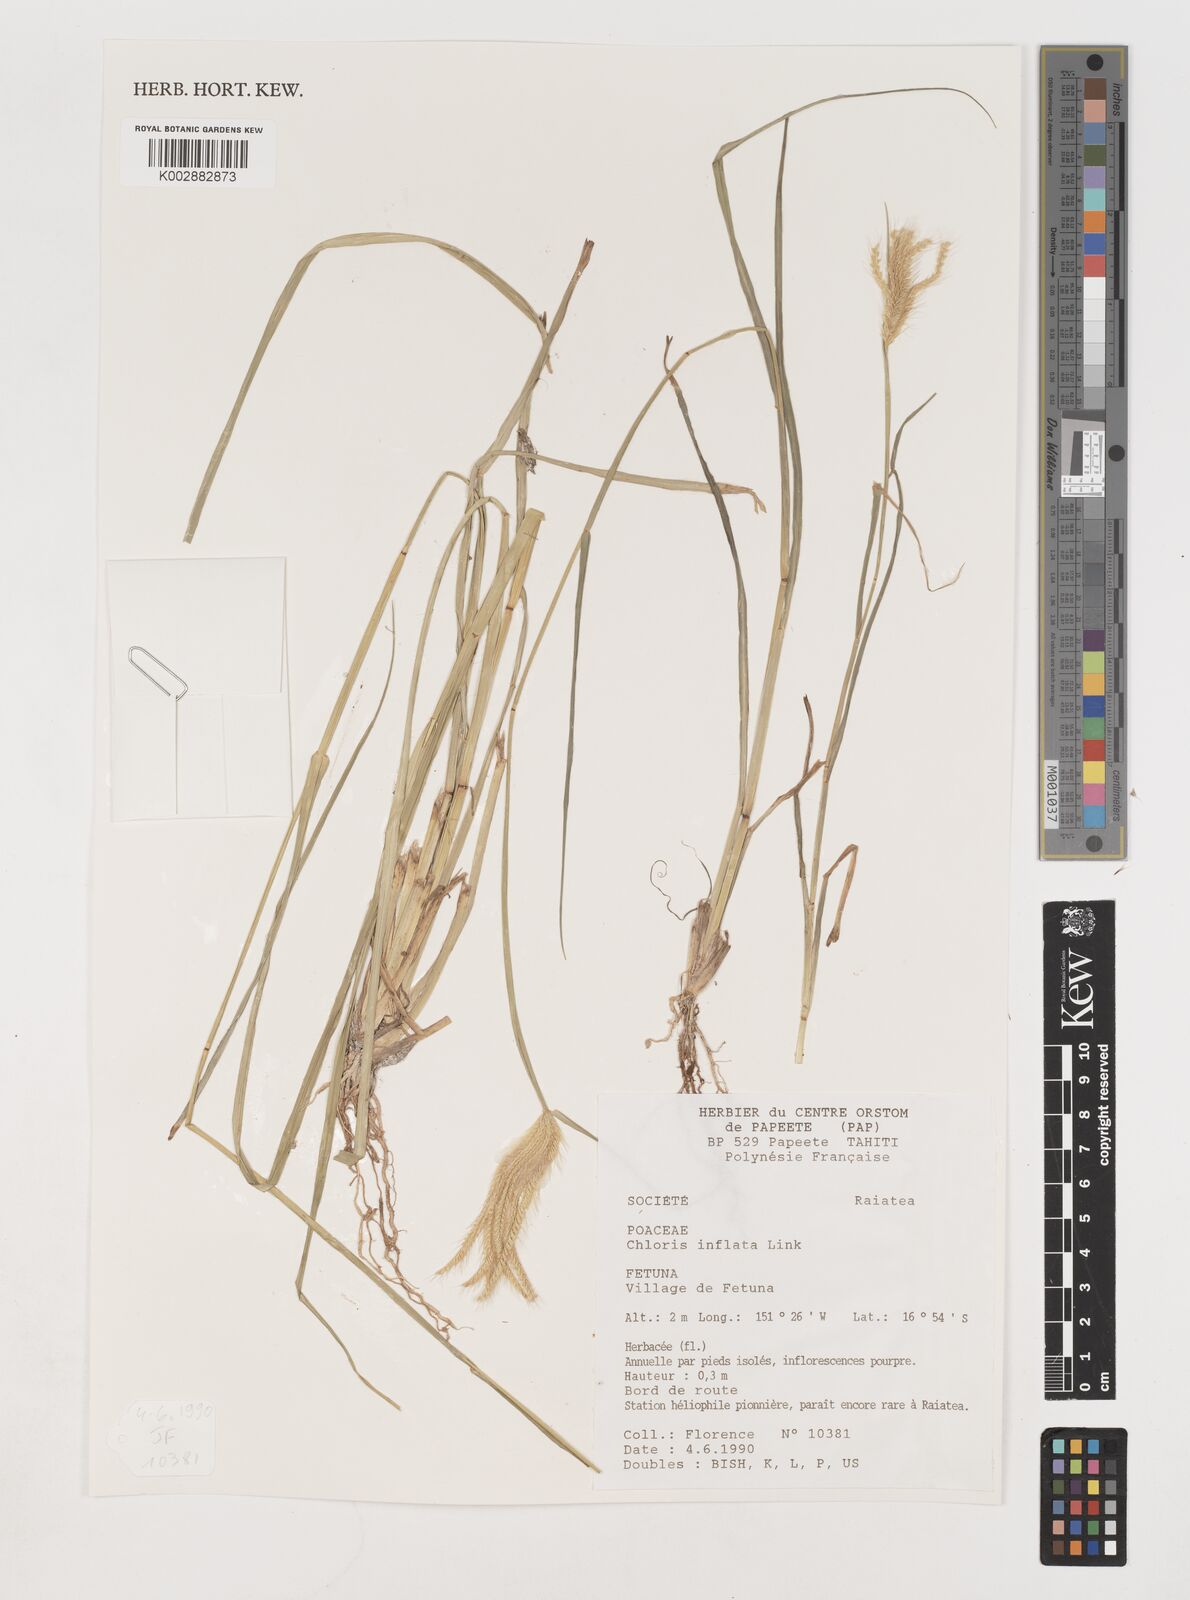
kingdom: Plantae
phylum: Tracheophyta
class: Liliopsida
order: Poales
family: Poaceae
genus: Chloris
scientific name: Chloris barbata
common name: Swollen fingergrass
